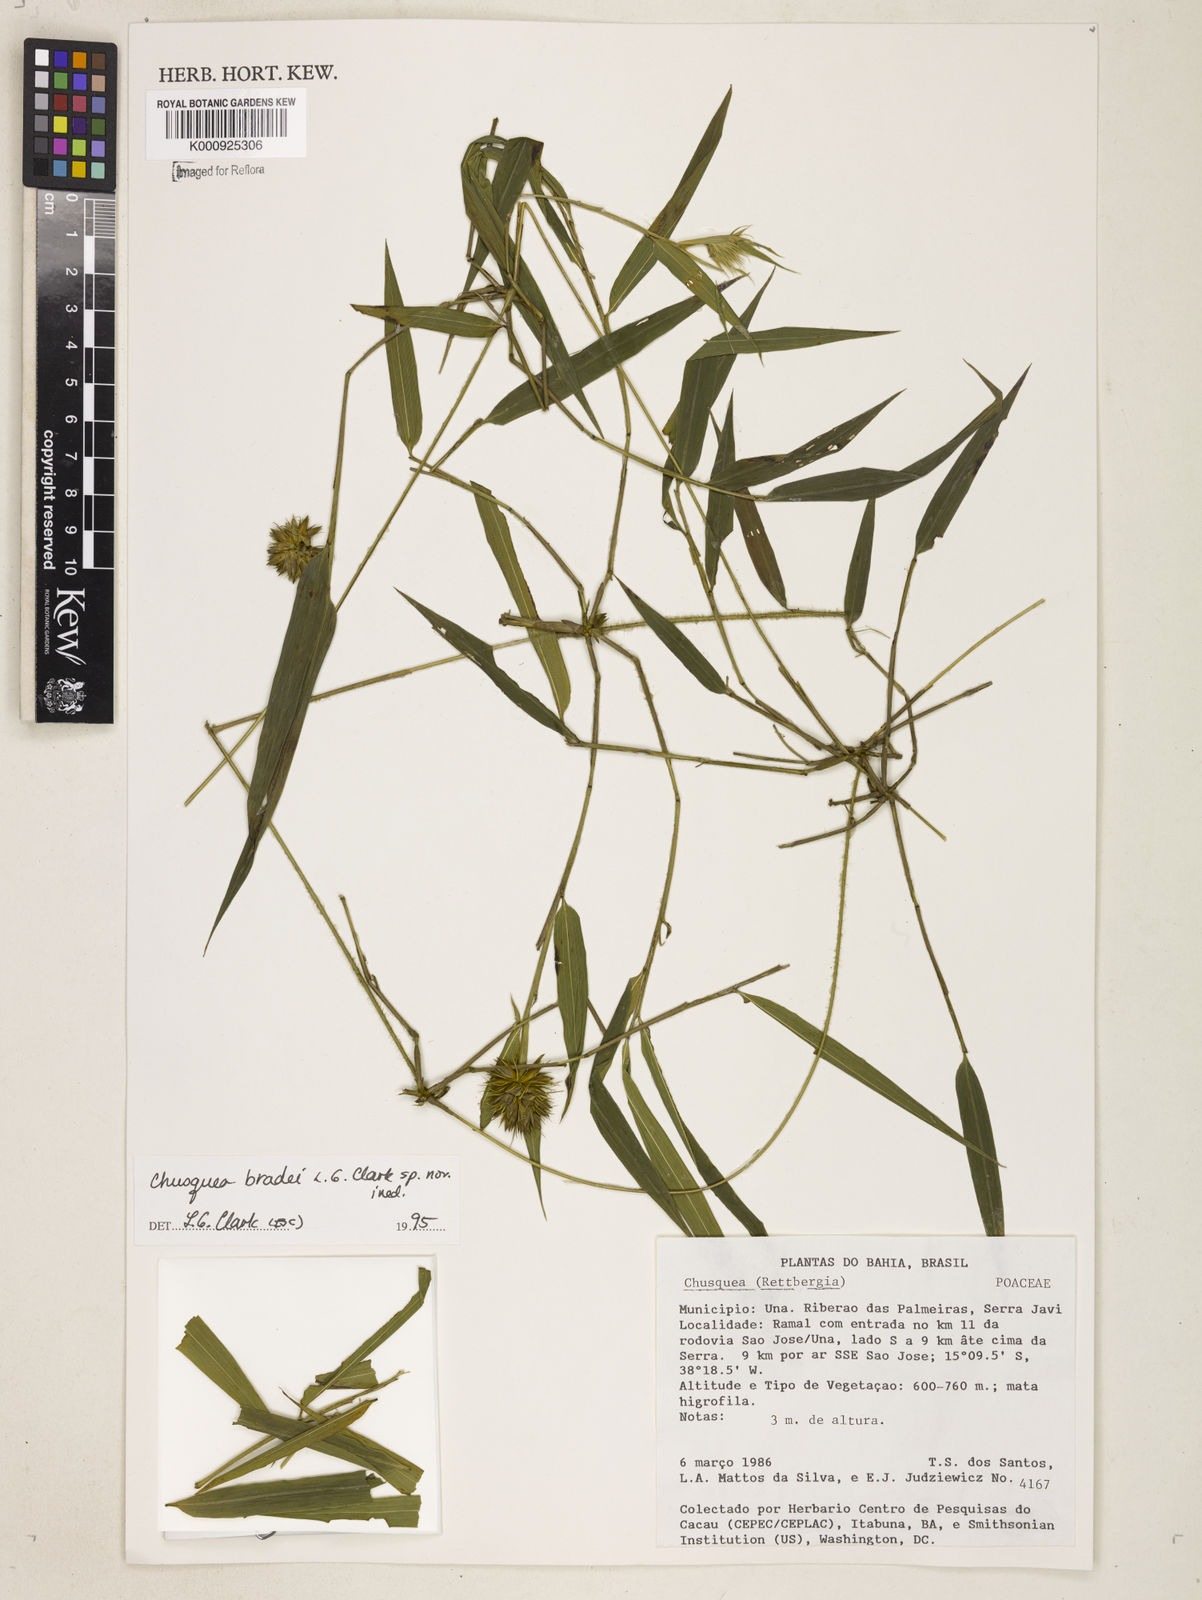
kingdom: Plantae
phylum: Tracheophyta
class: Liliopsida
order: Poales
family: Poaceae
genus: Chusquea
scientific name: Chusquea bradei
